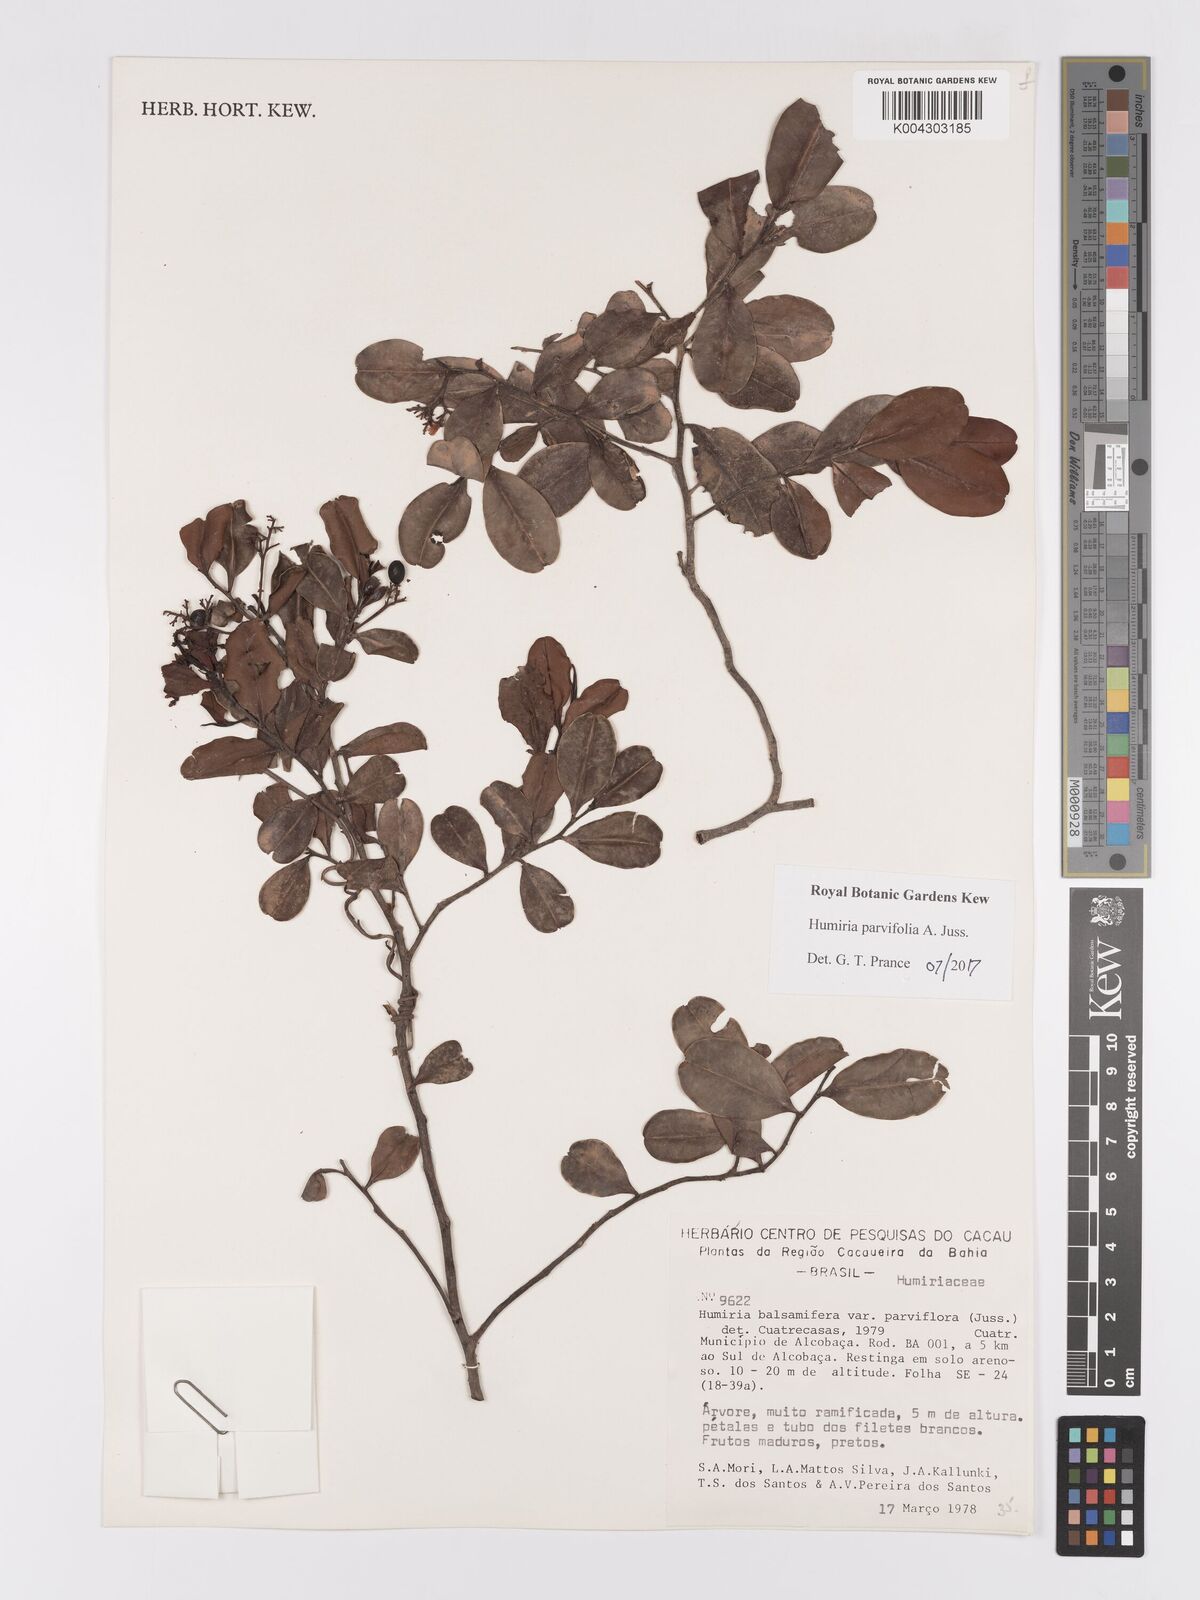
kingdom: Plantae
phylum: Tracheophyta
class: Magnoliopsida
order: Malpighiales
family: Humiriaceae
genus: Humiria
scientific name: Humiria parvifolia
